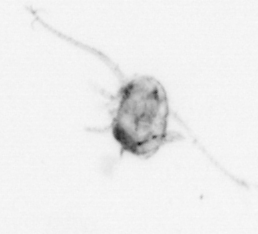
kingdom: Animalia
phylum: Arthropoda
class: Copepoda
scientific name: Copepoda
